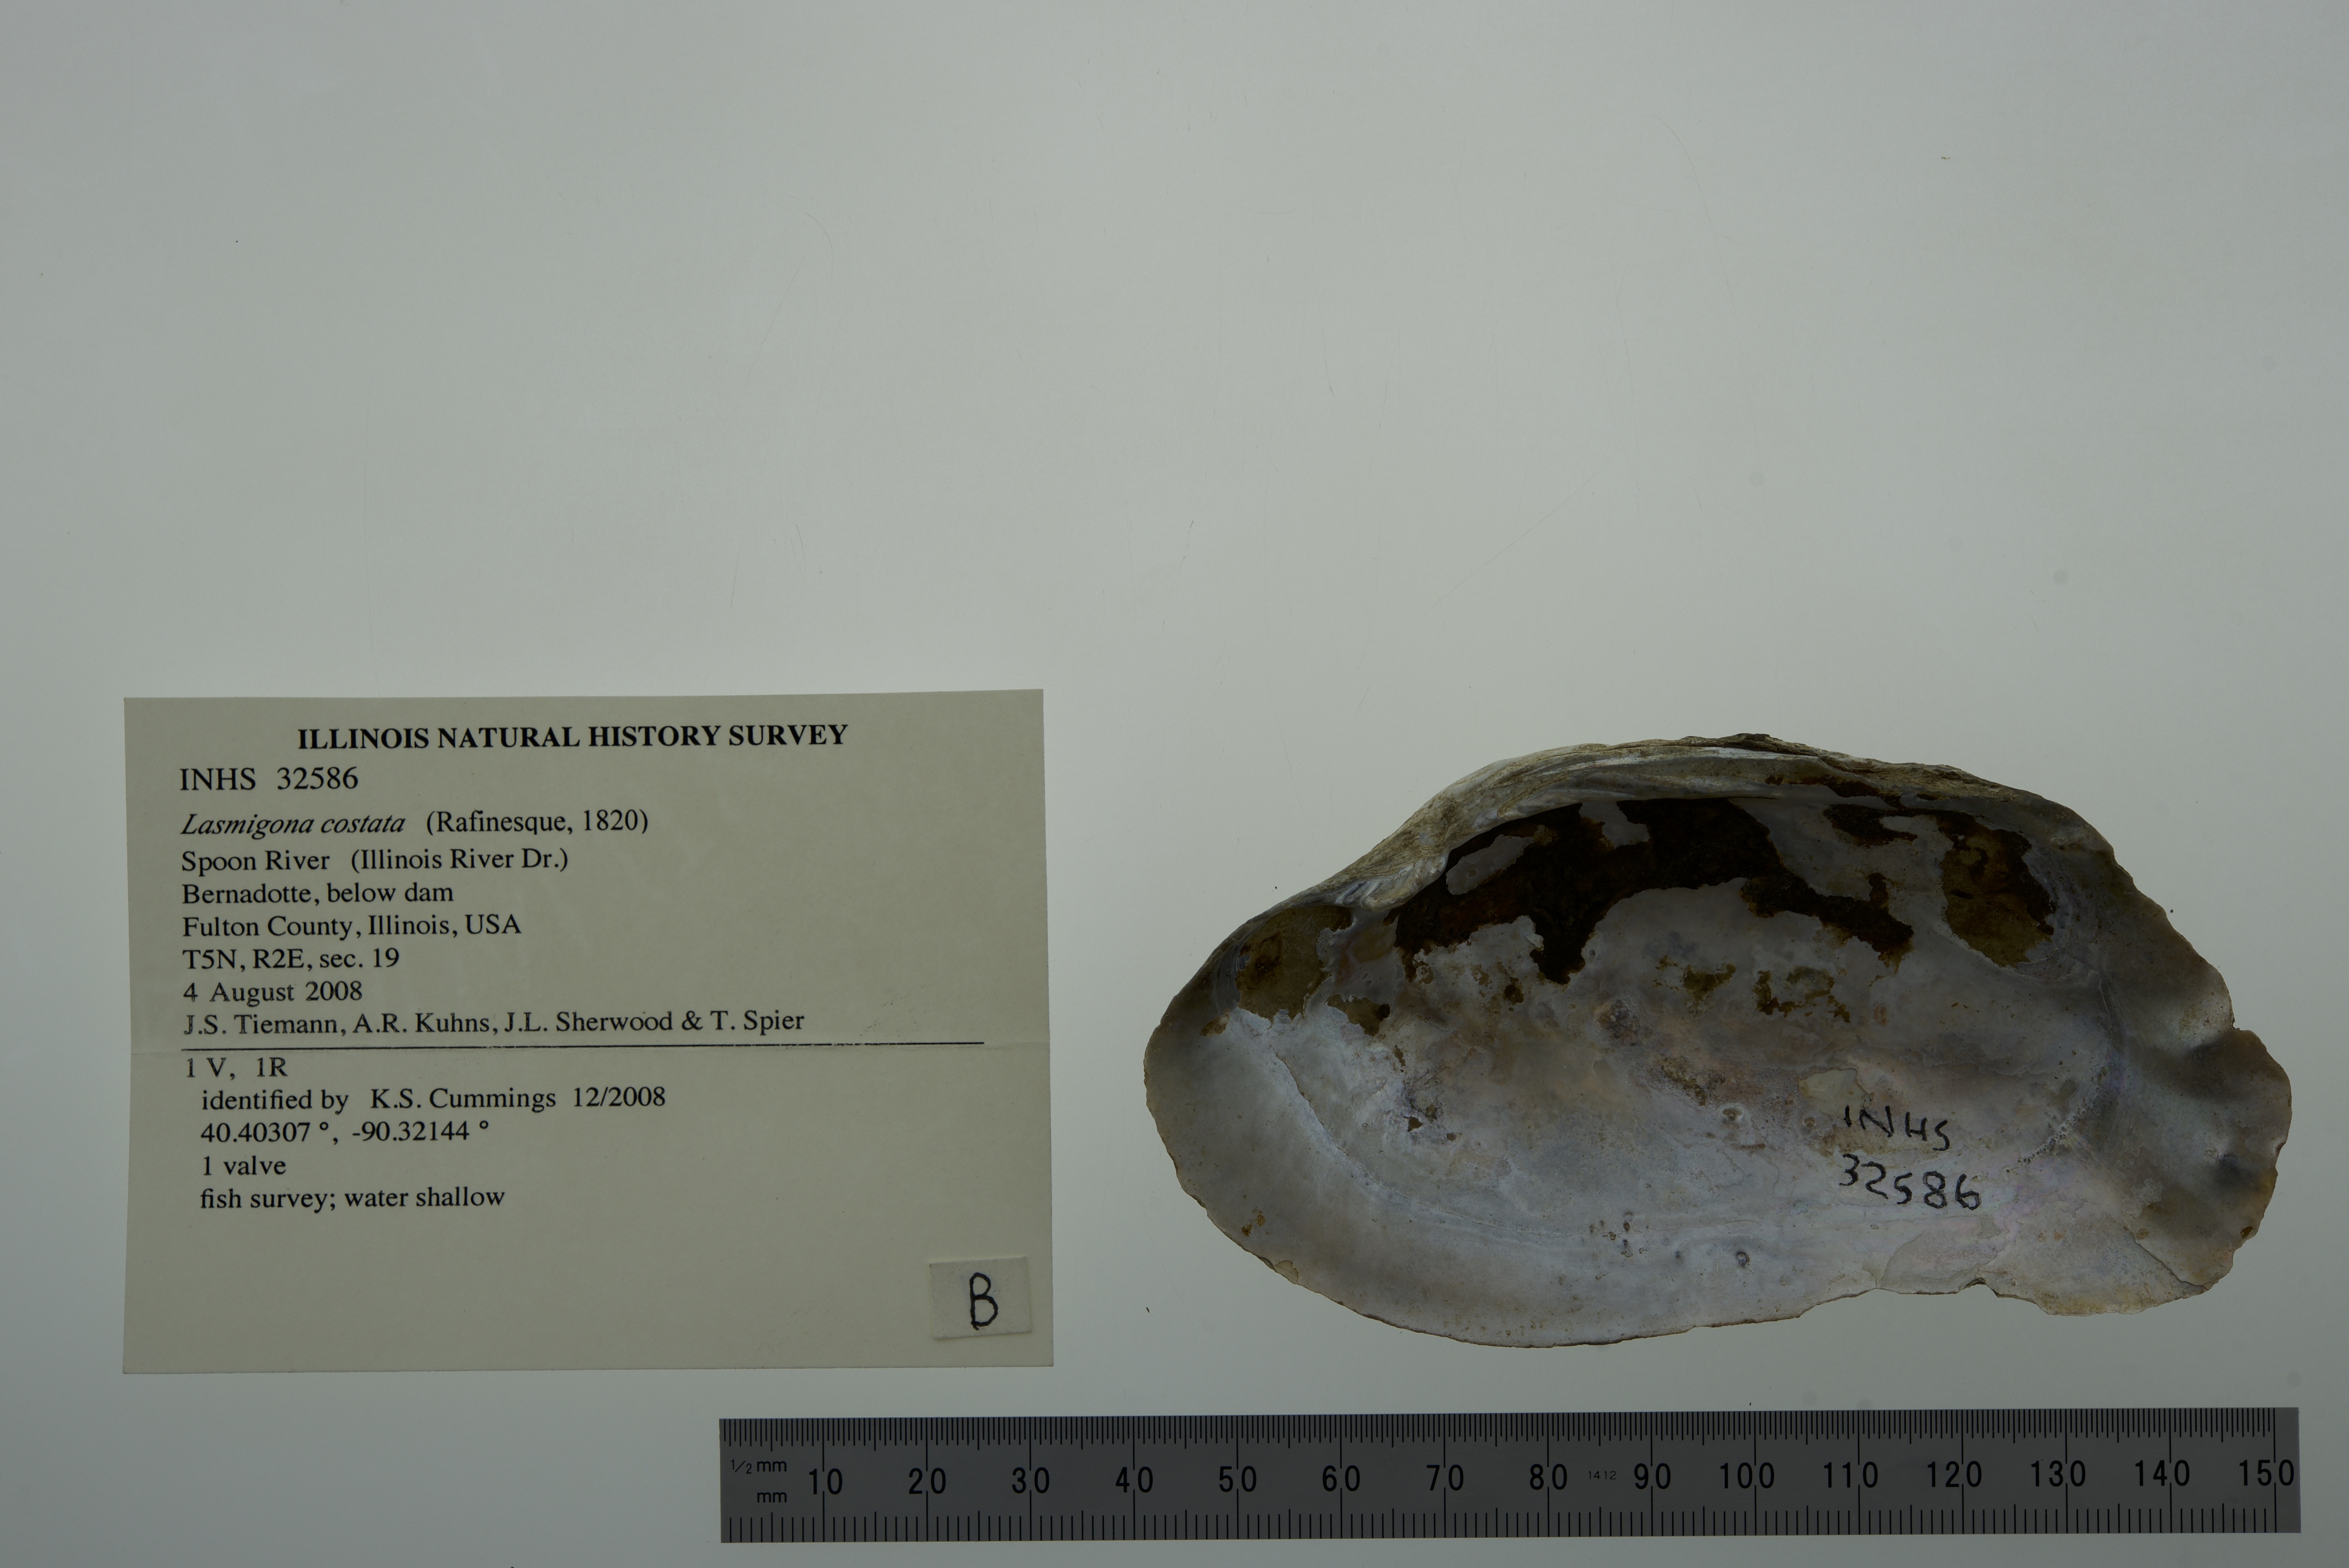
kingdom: Animalia
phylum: Mollusca
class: Bivalvia
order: Unionida
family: Unionidae
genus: Lasmigona
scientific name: Lasmigona costata
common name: Flutedshell
